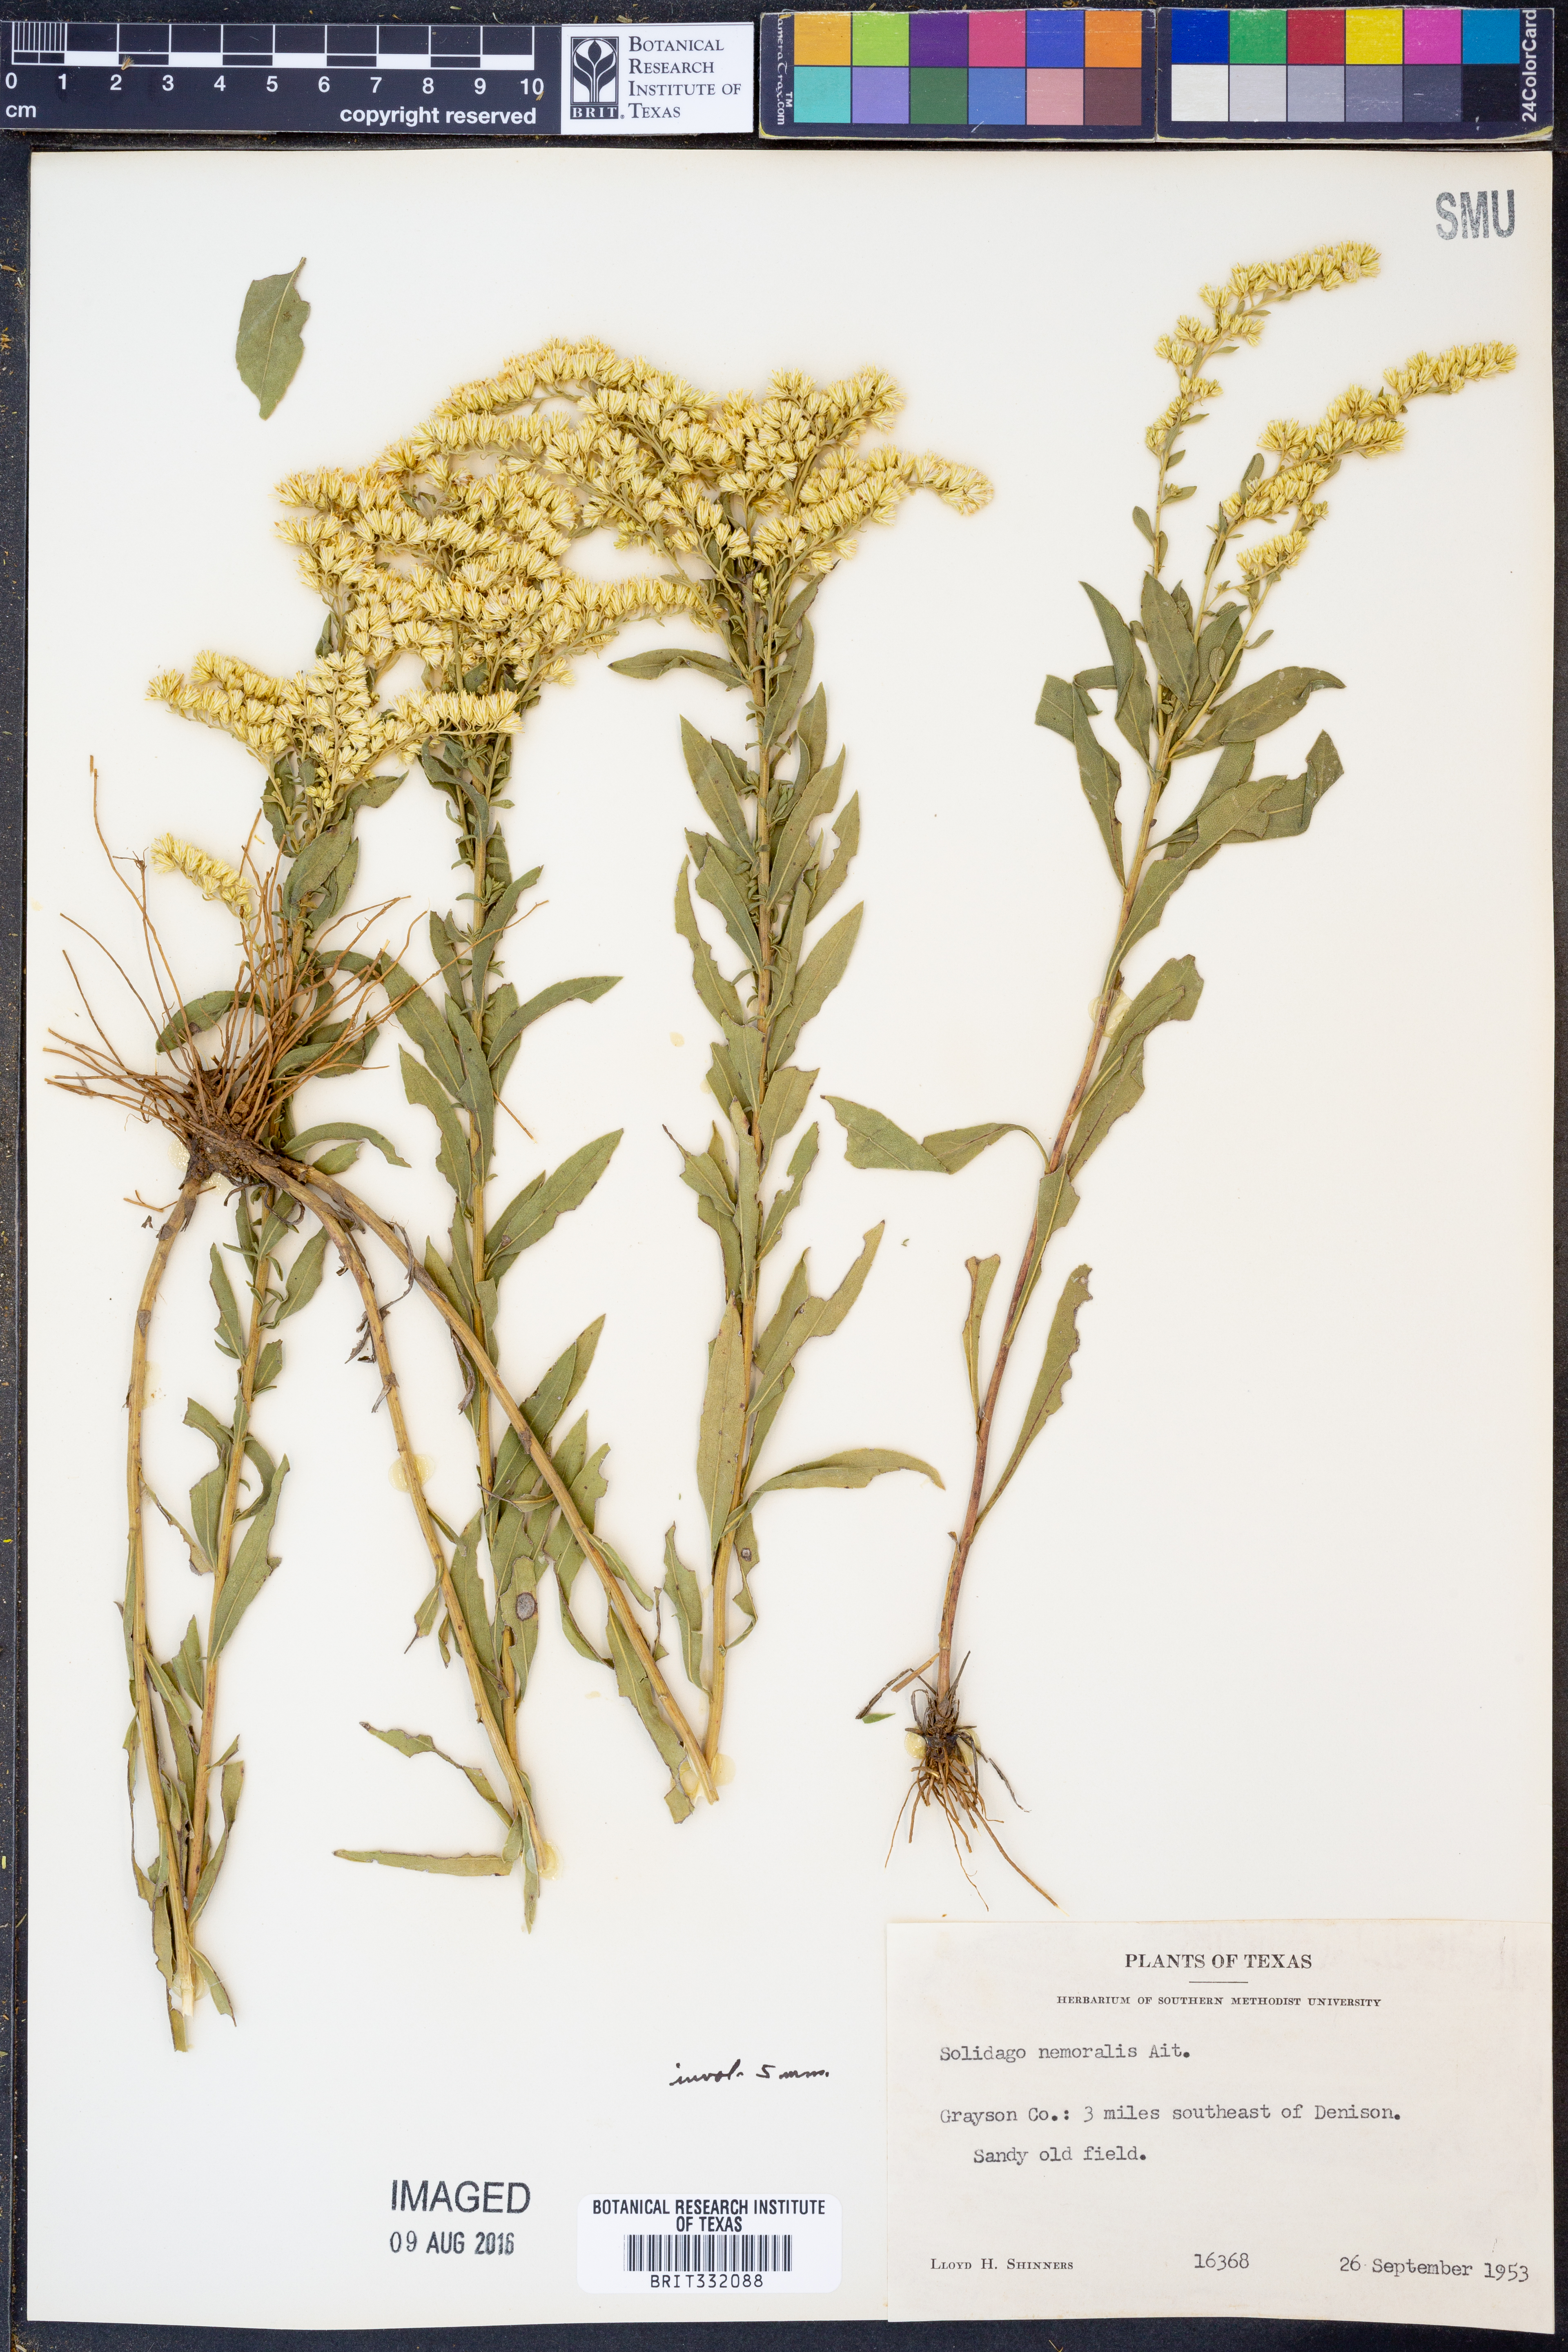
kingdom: Plantae
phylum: Tracheophyta
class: Magnoliopsida
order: Asterales
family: Asteraceae
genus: Solidago
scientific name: Solidago nemoralis
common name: Grey goldenrod
